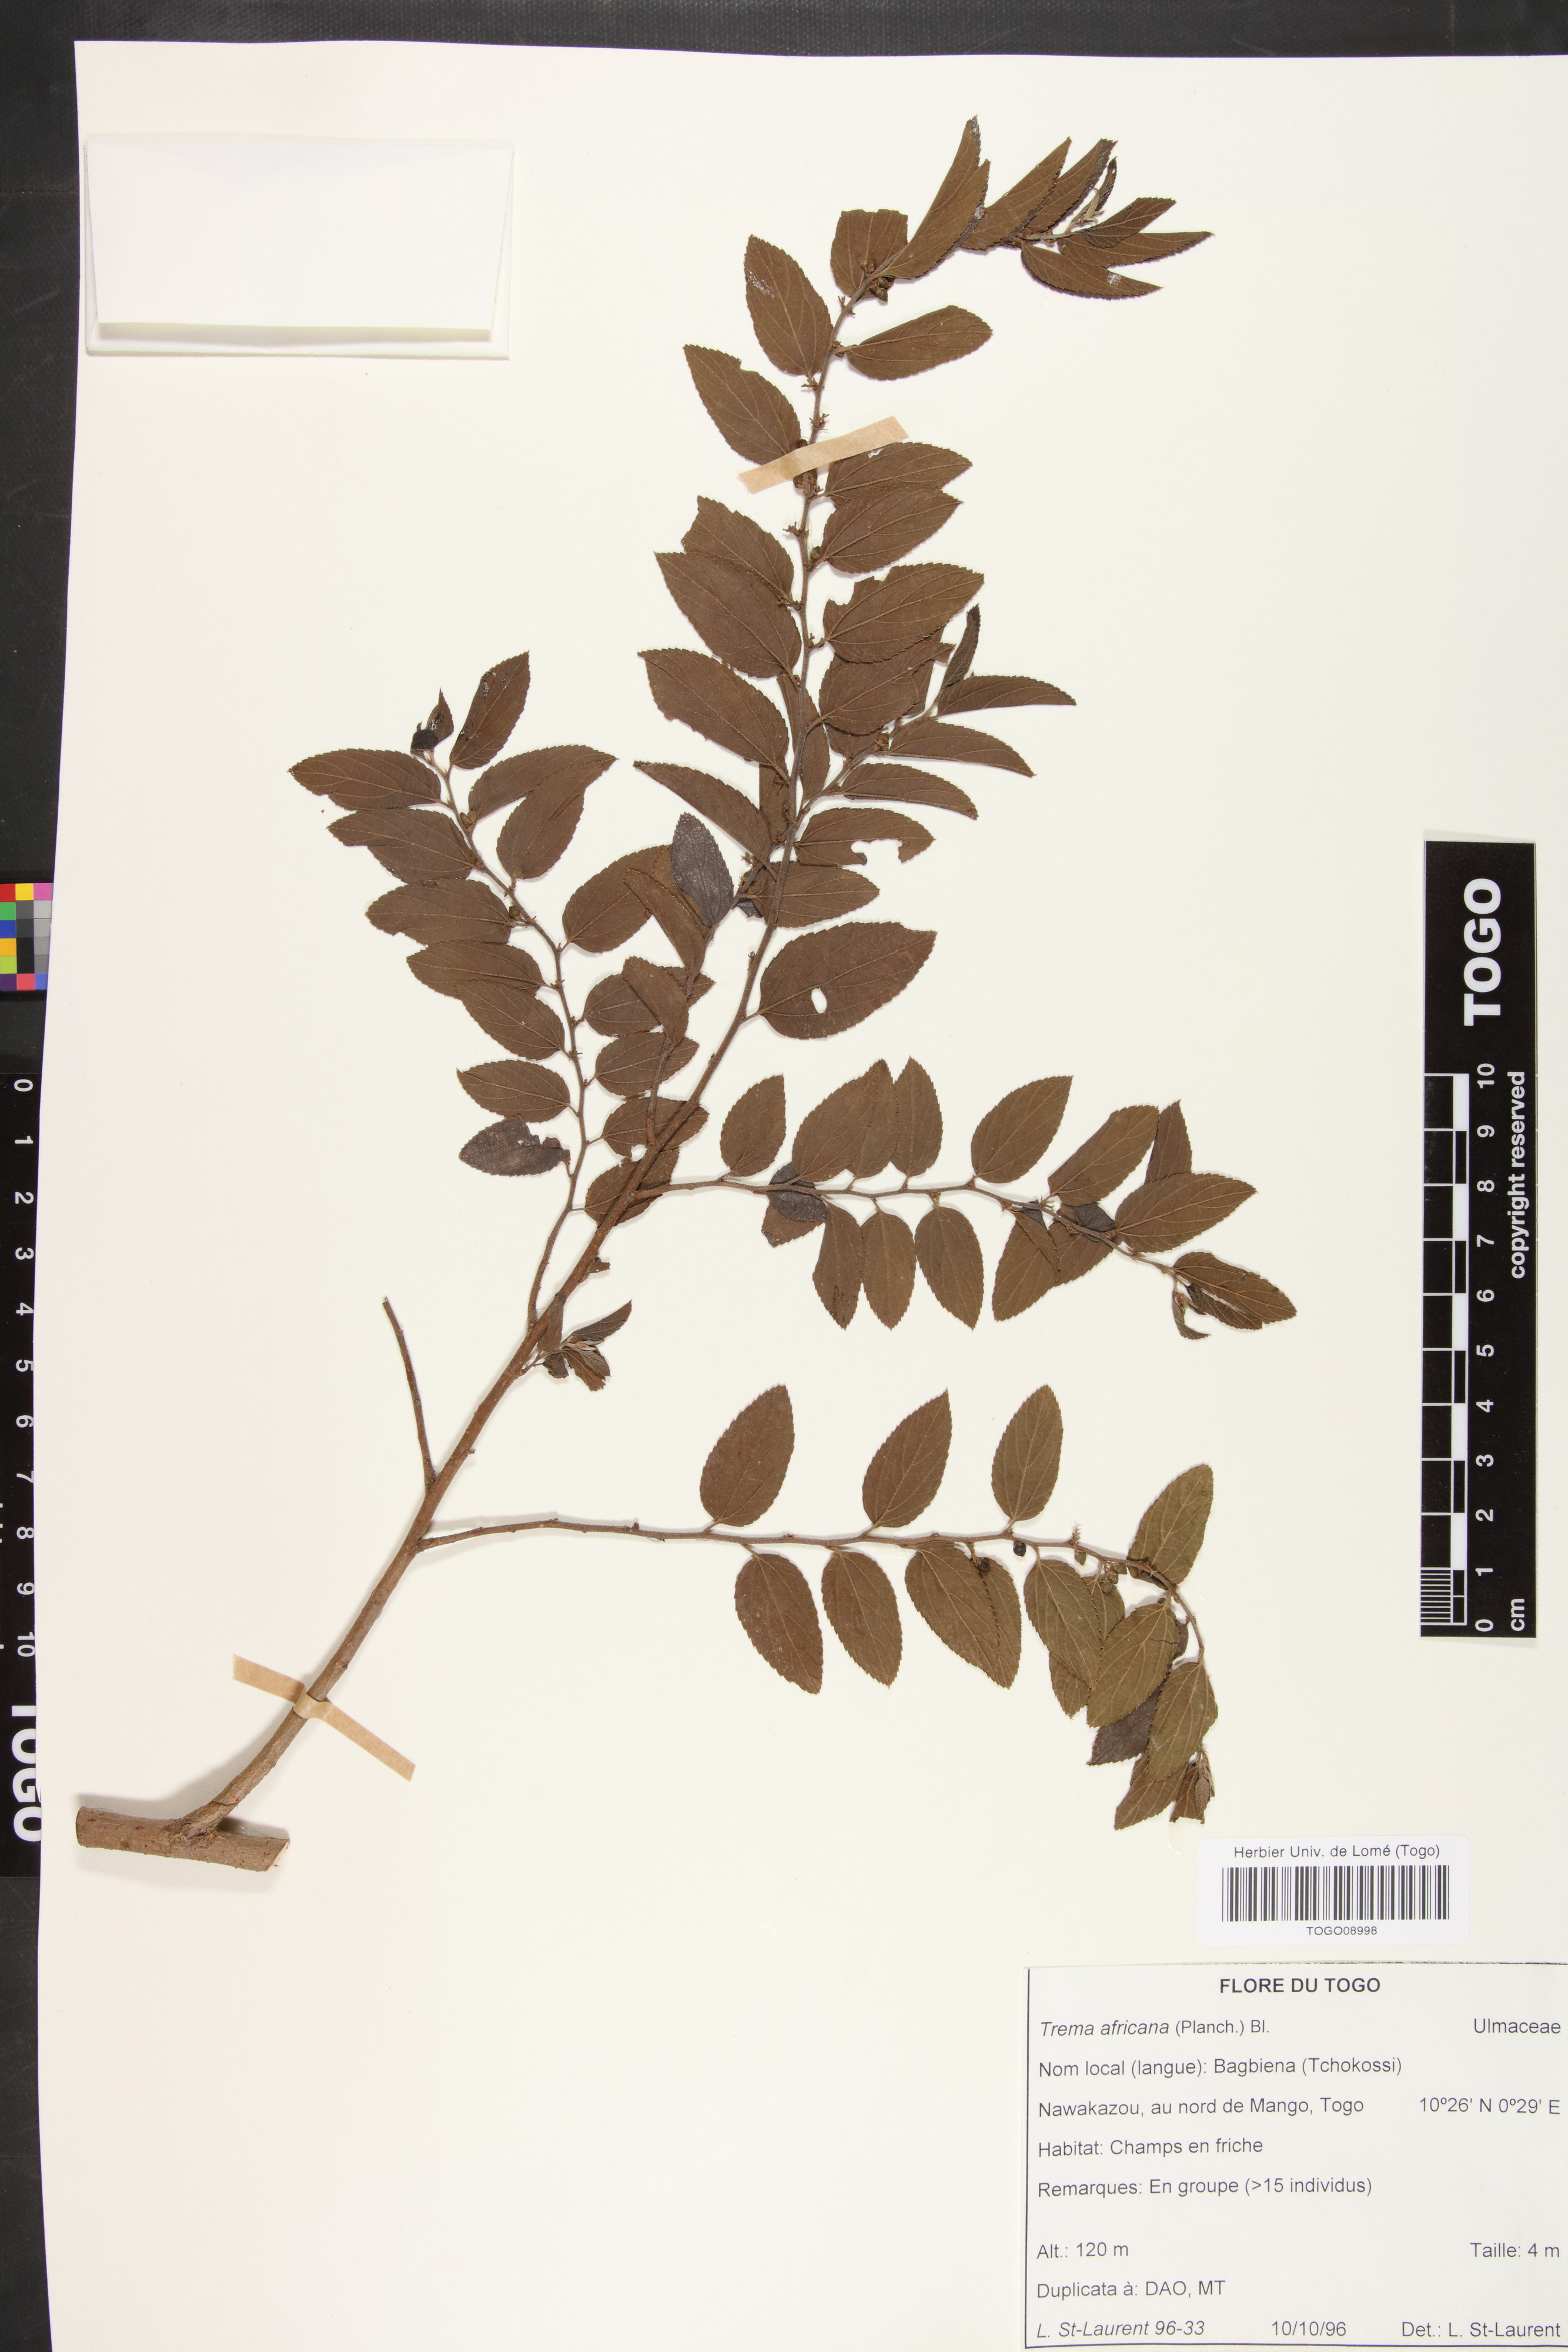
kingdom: Plantae
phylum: Tracheophyta
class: Magnoliopsida
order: Rosales
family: Cannabaceae
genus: Trema
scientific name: Trema orientale
